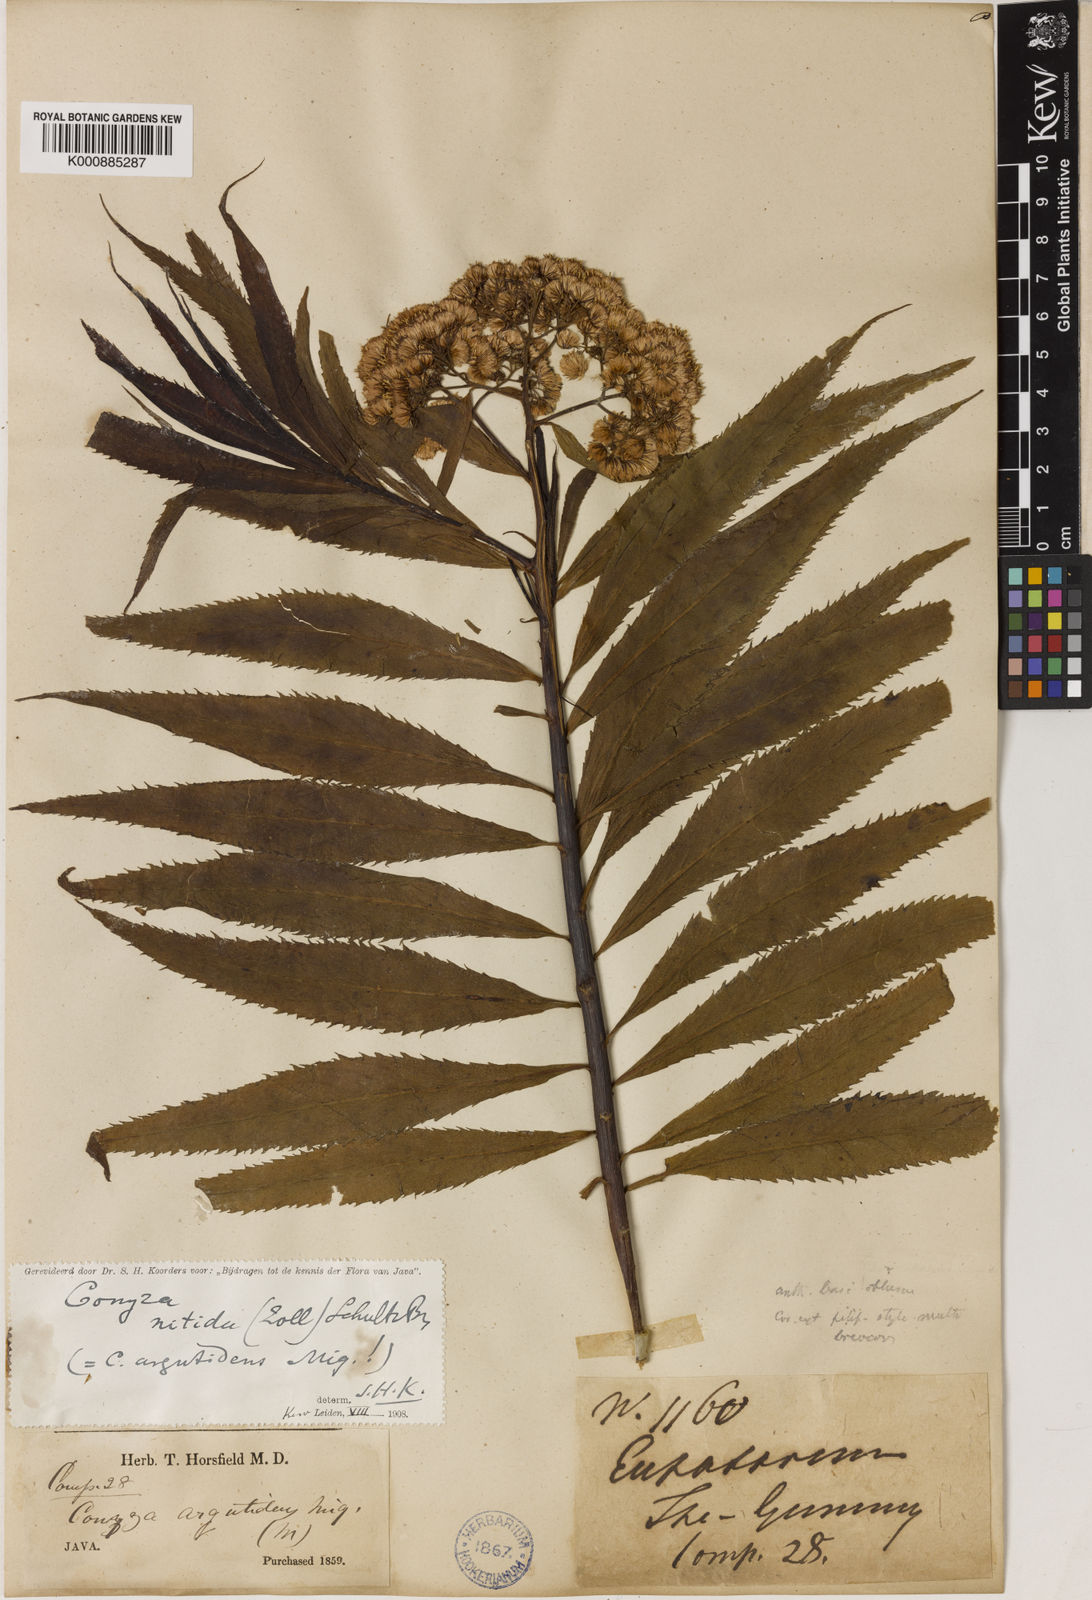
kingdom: Plantae
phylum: Tracheophyta
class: Magnoliopsida
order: Asterales
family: Asteraceae
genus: Conyza
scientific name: Conyza
